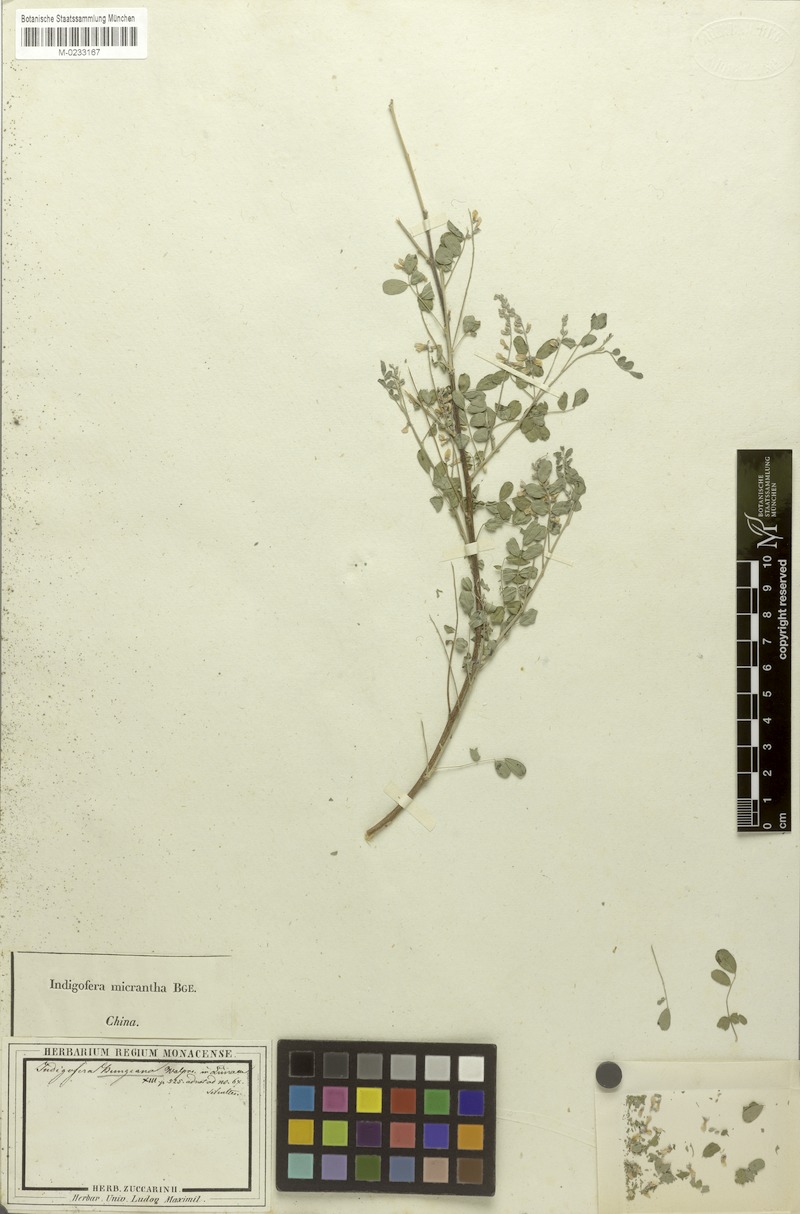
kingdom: Plantae
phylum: Tracheophyta
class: Magnoliopsida
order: Fabales
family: Fabaceae
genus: Indigofera
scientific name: Indigofera bungeana
